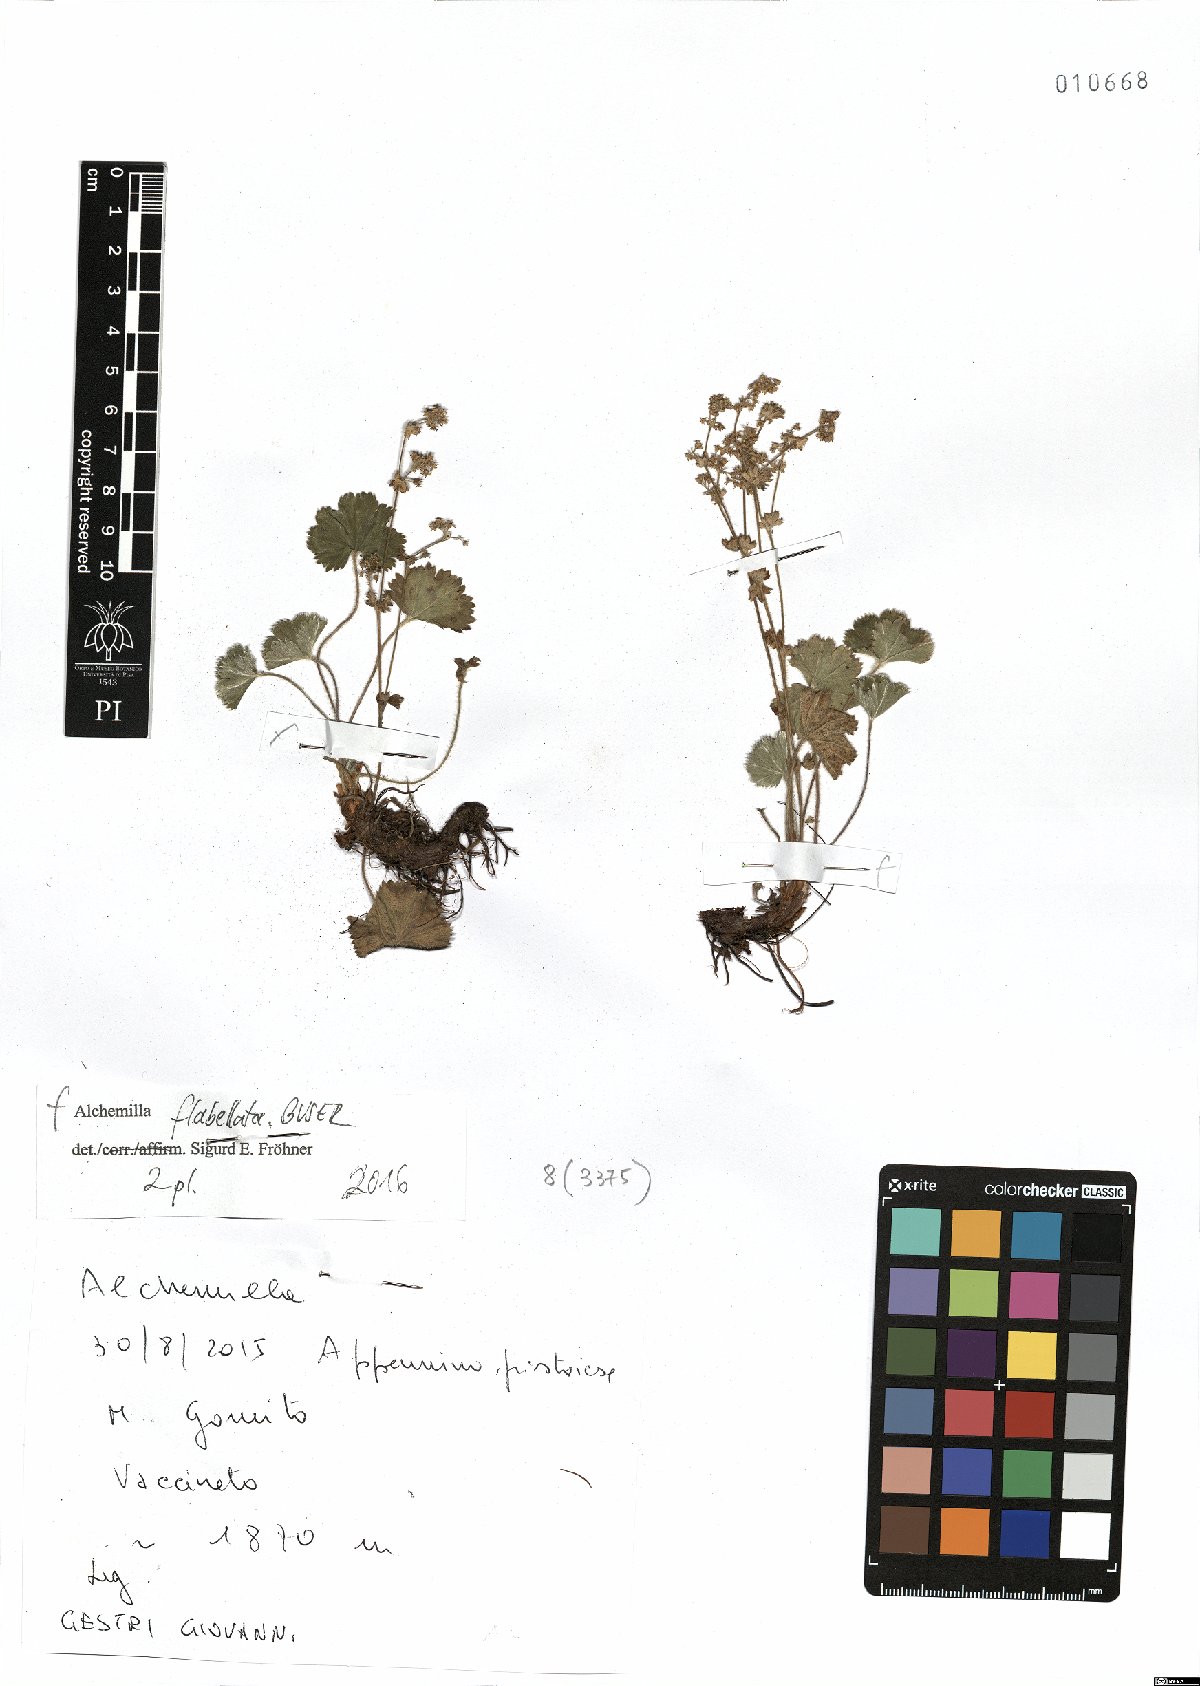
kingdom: Plantae
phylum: Tracheophyta
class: Magnoliopsida
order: Rosales
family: Rosaceae
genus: Alchemilla
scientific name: Alchemilla flabellata
